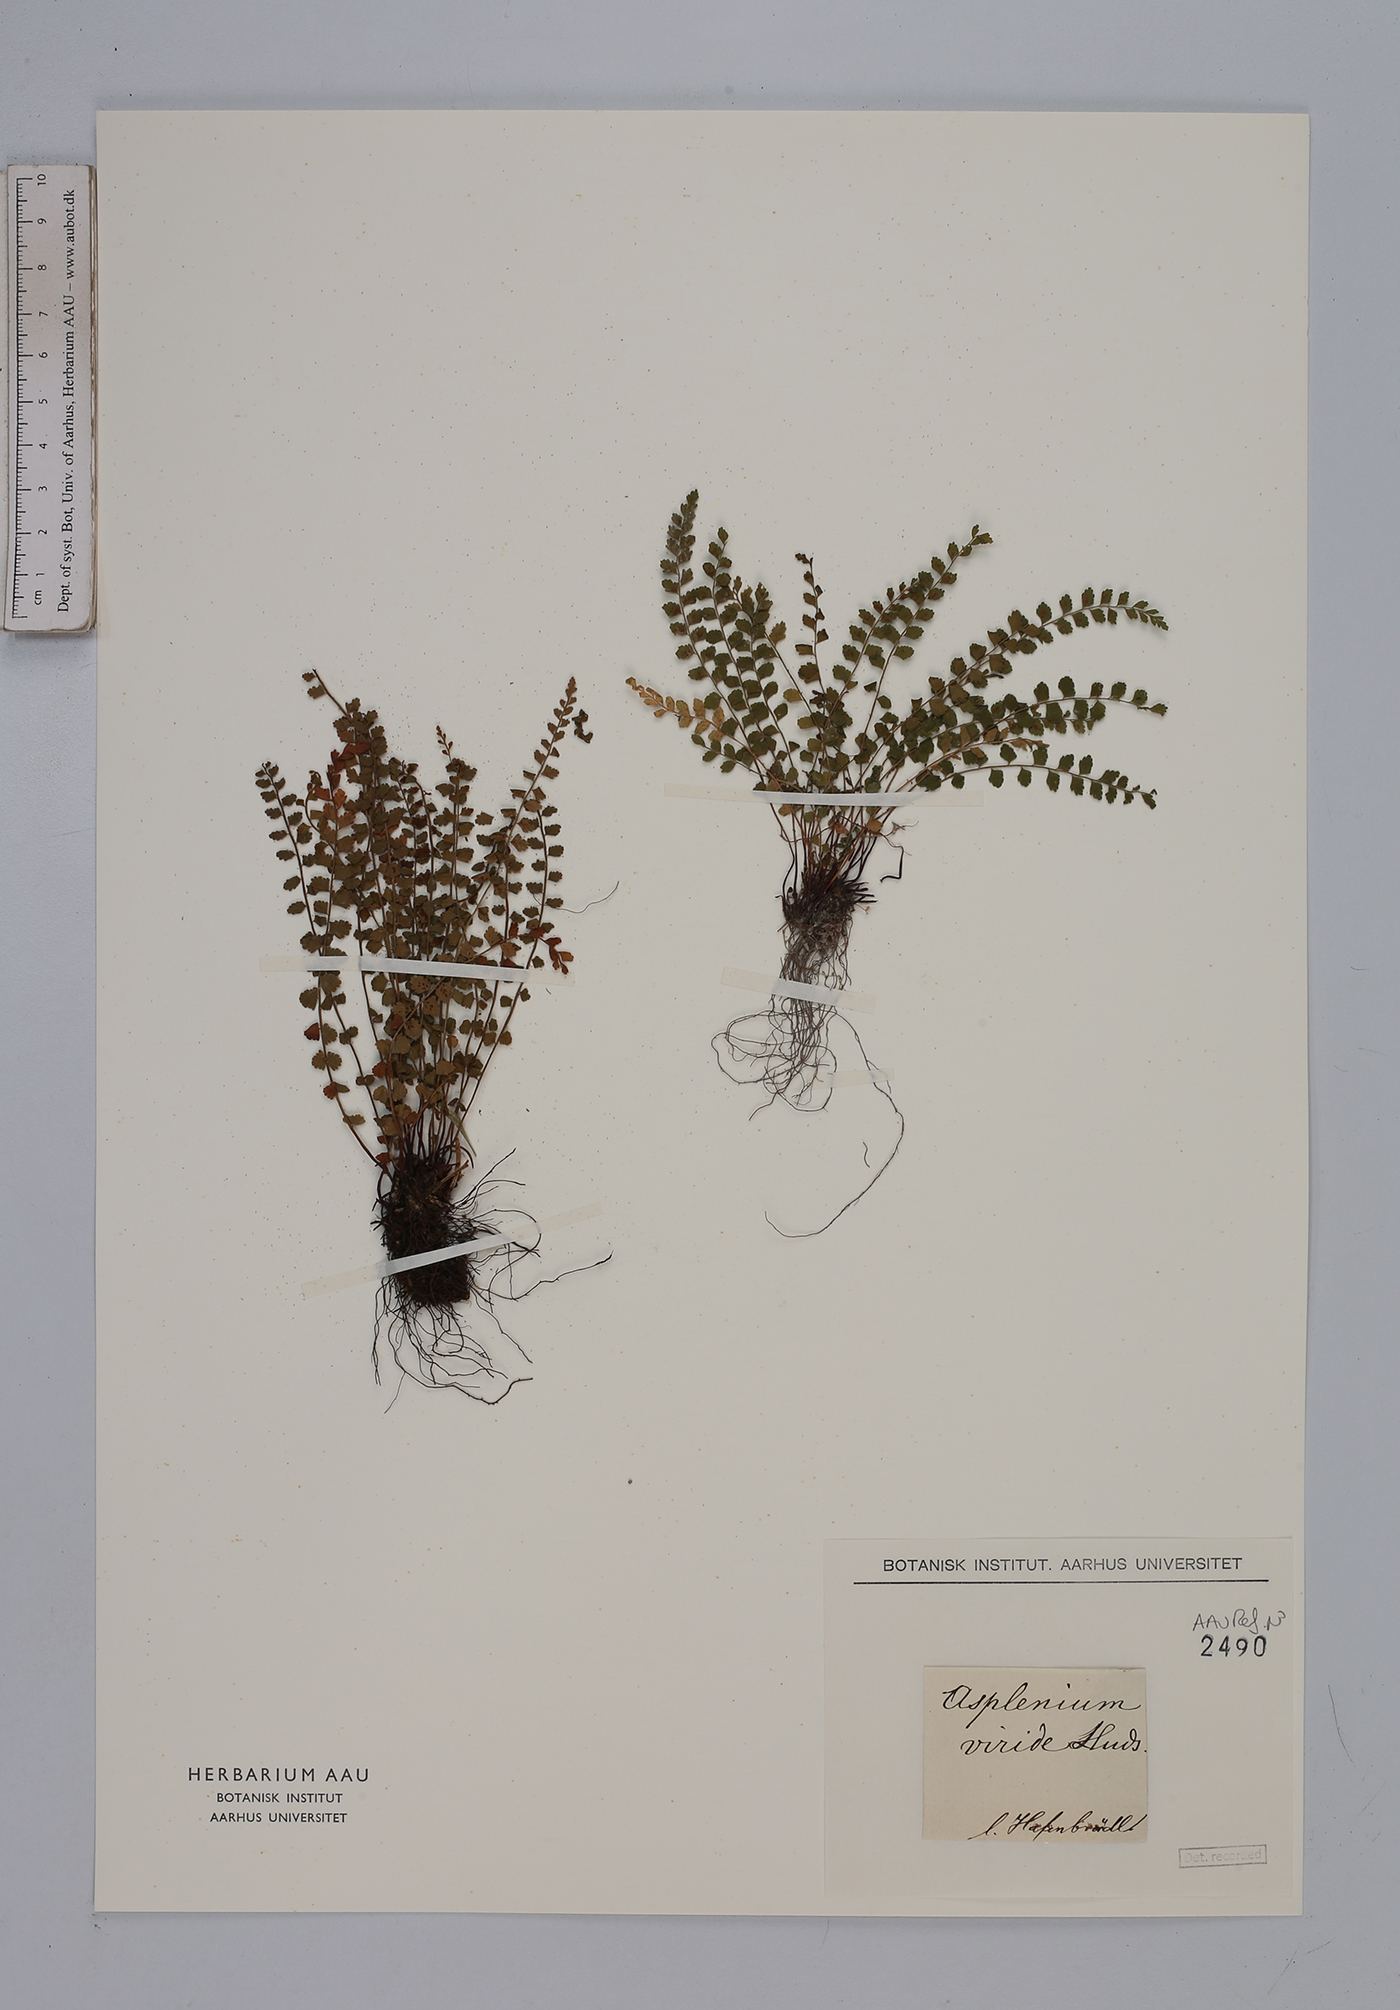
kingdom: Plantae
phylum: Tracheophyta
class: Polypodiopsida
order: Polypodiales
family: Aspleniaceae
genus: Asplenium
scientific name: Asplenium viride
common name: Green spleenwort
